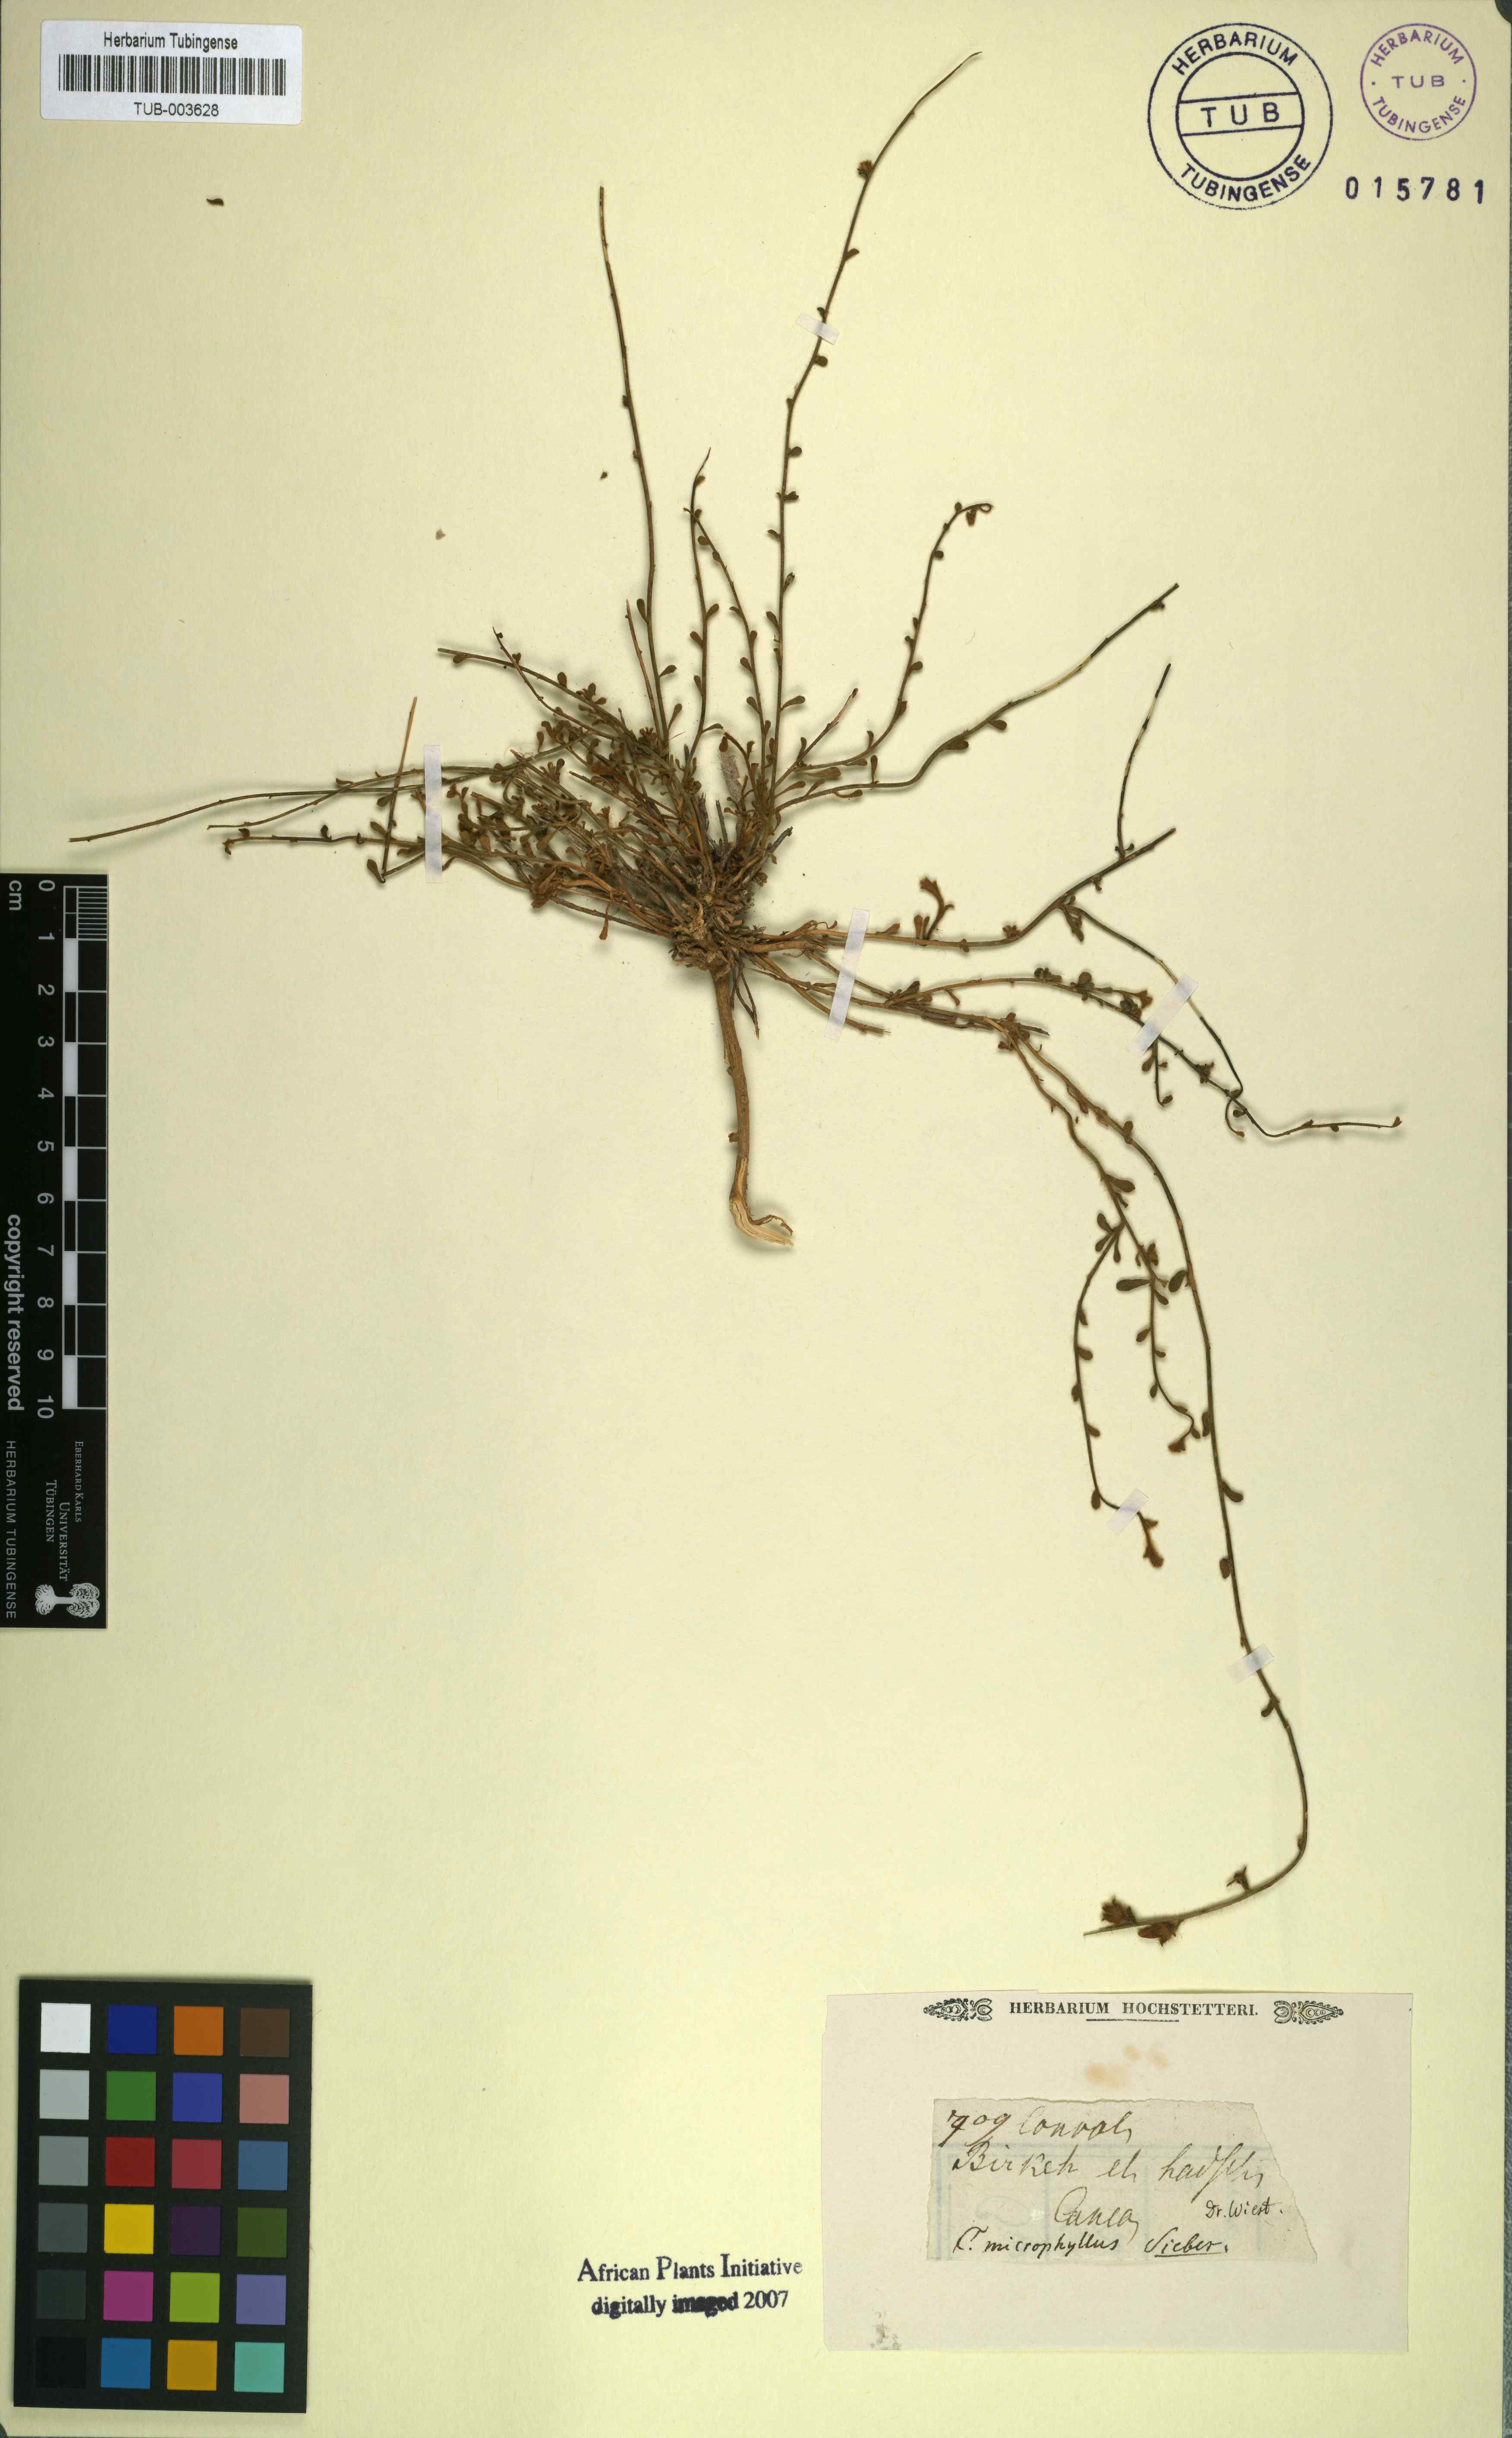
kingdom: Plantae
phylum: Tracheophyta
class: Magnoliopsida
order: Solanales
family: Convolvulaceae
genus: Convolvulus
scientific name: Convolvulus prostratus
